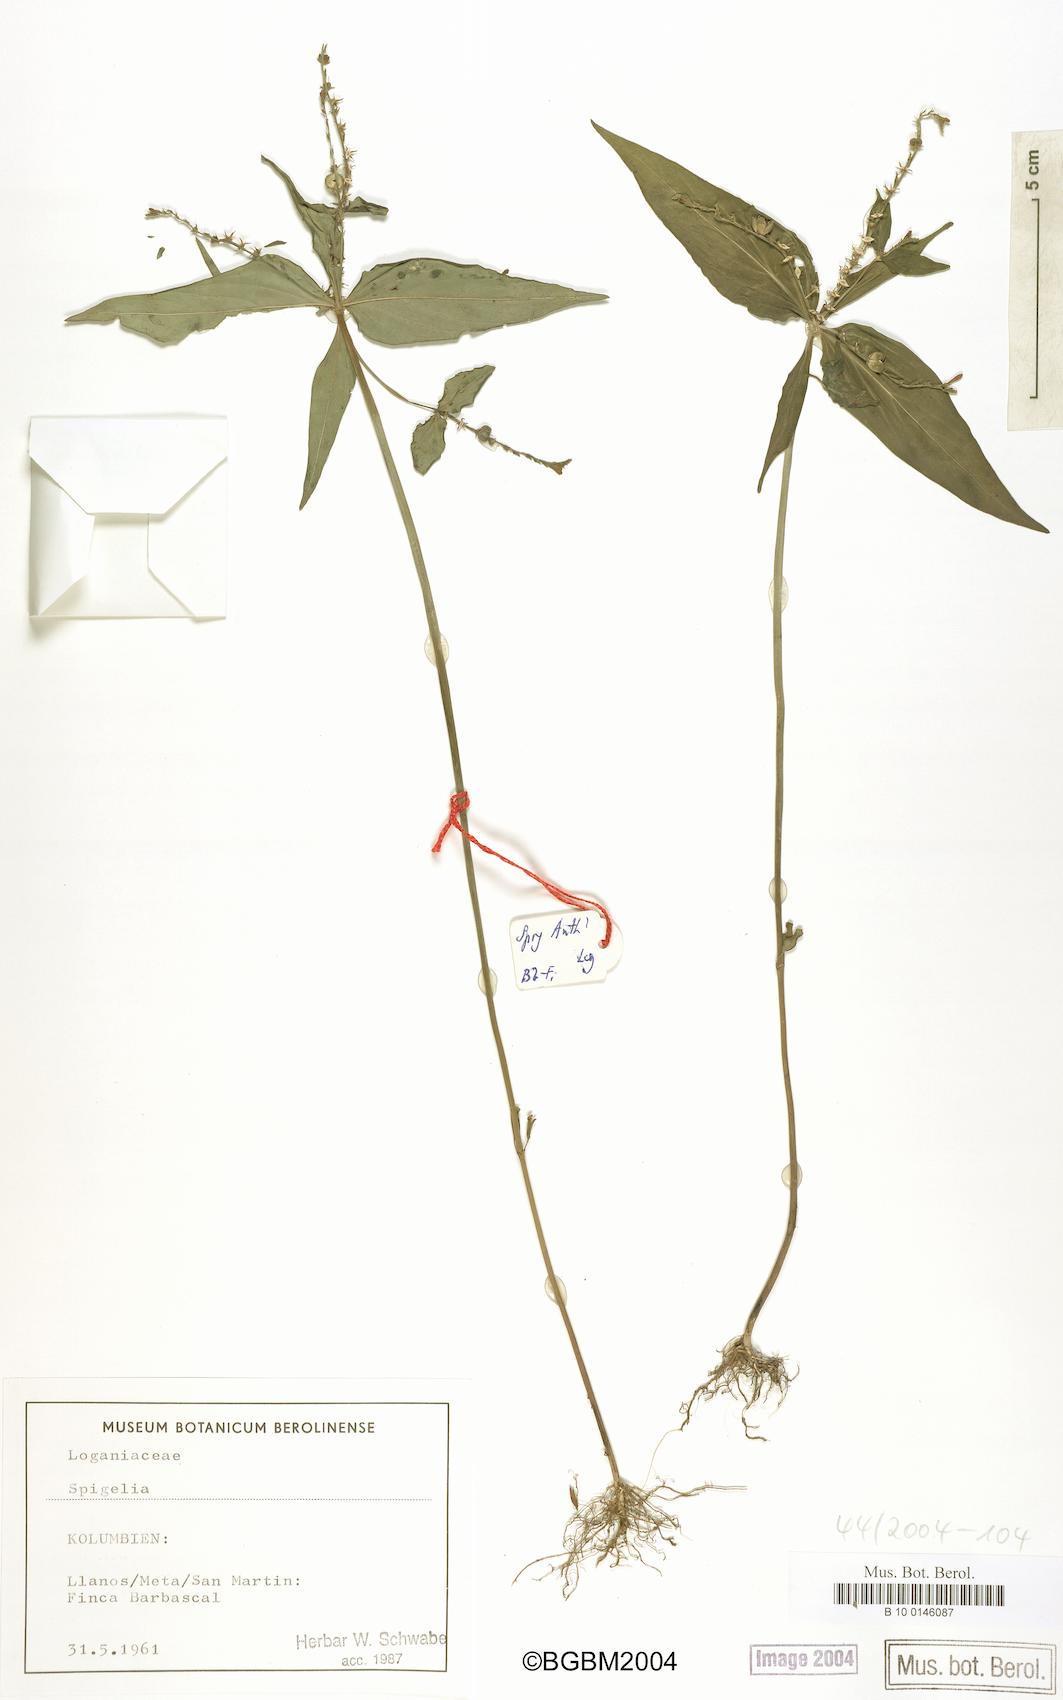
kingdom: Plantae
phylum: Tracheophyta
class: Magnoliopsida
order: Gentianales
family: Loganiaceae
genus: Spigelia
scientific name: Spigelia
